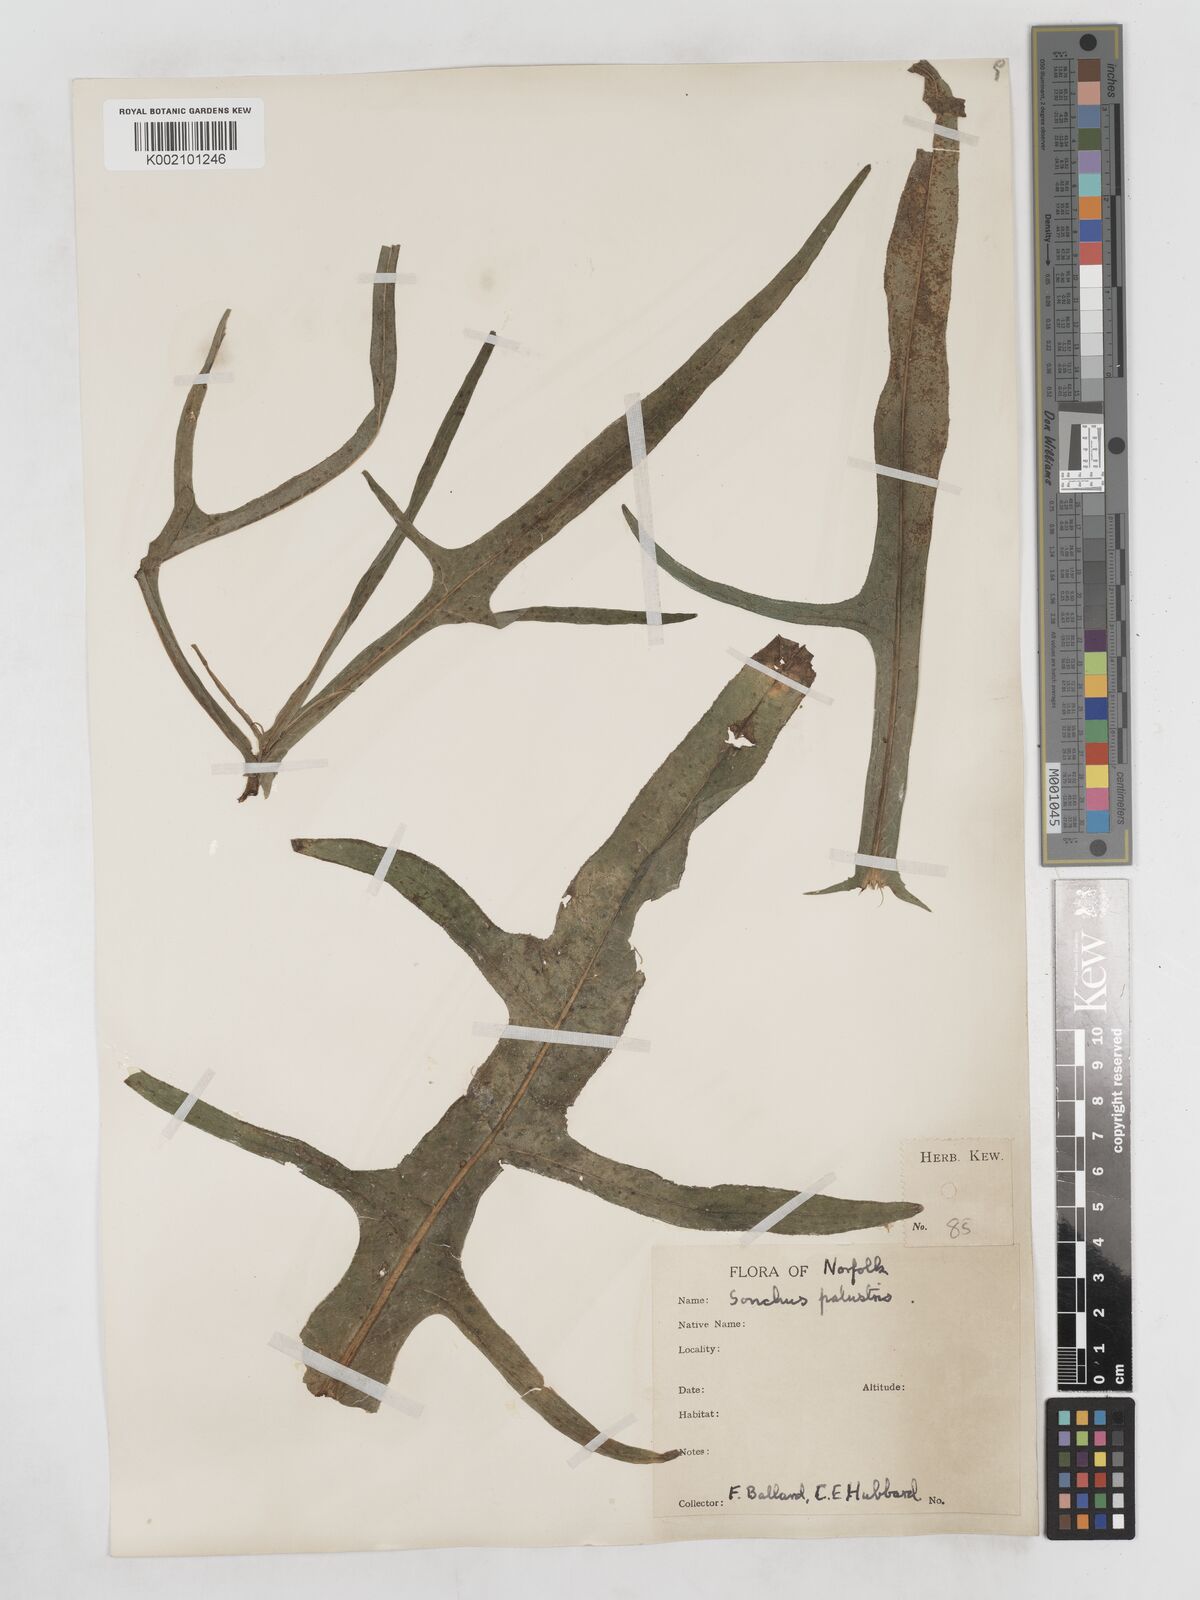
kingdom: Plantae
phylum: Tracheophyta
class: Magnoliopsida
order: Asterales
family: Asteraceae
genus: Sonchus
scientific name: Sonchus palustris
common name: Marsh sow-thistle
